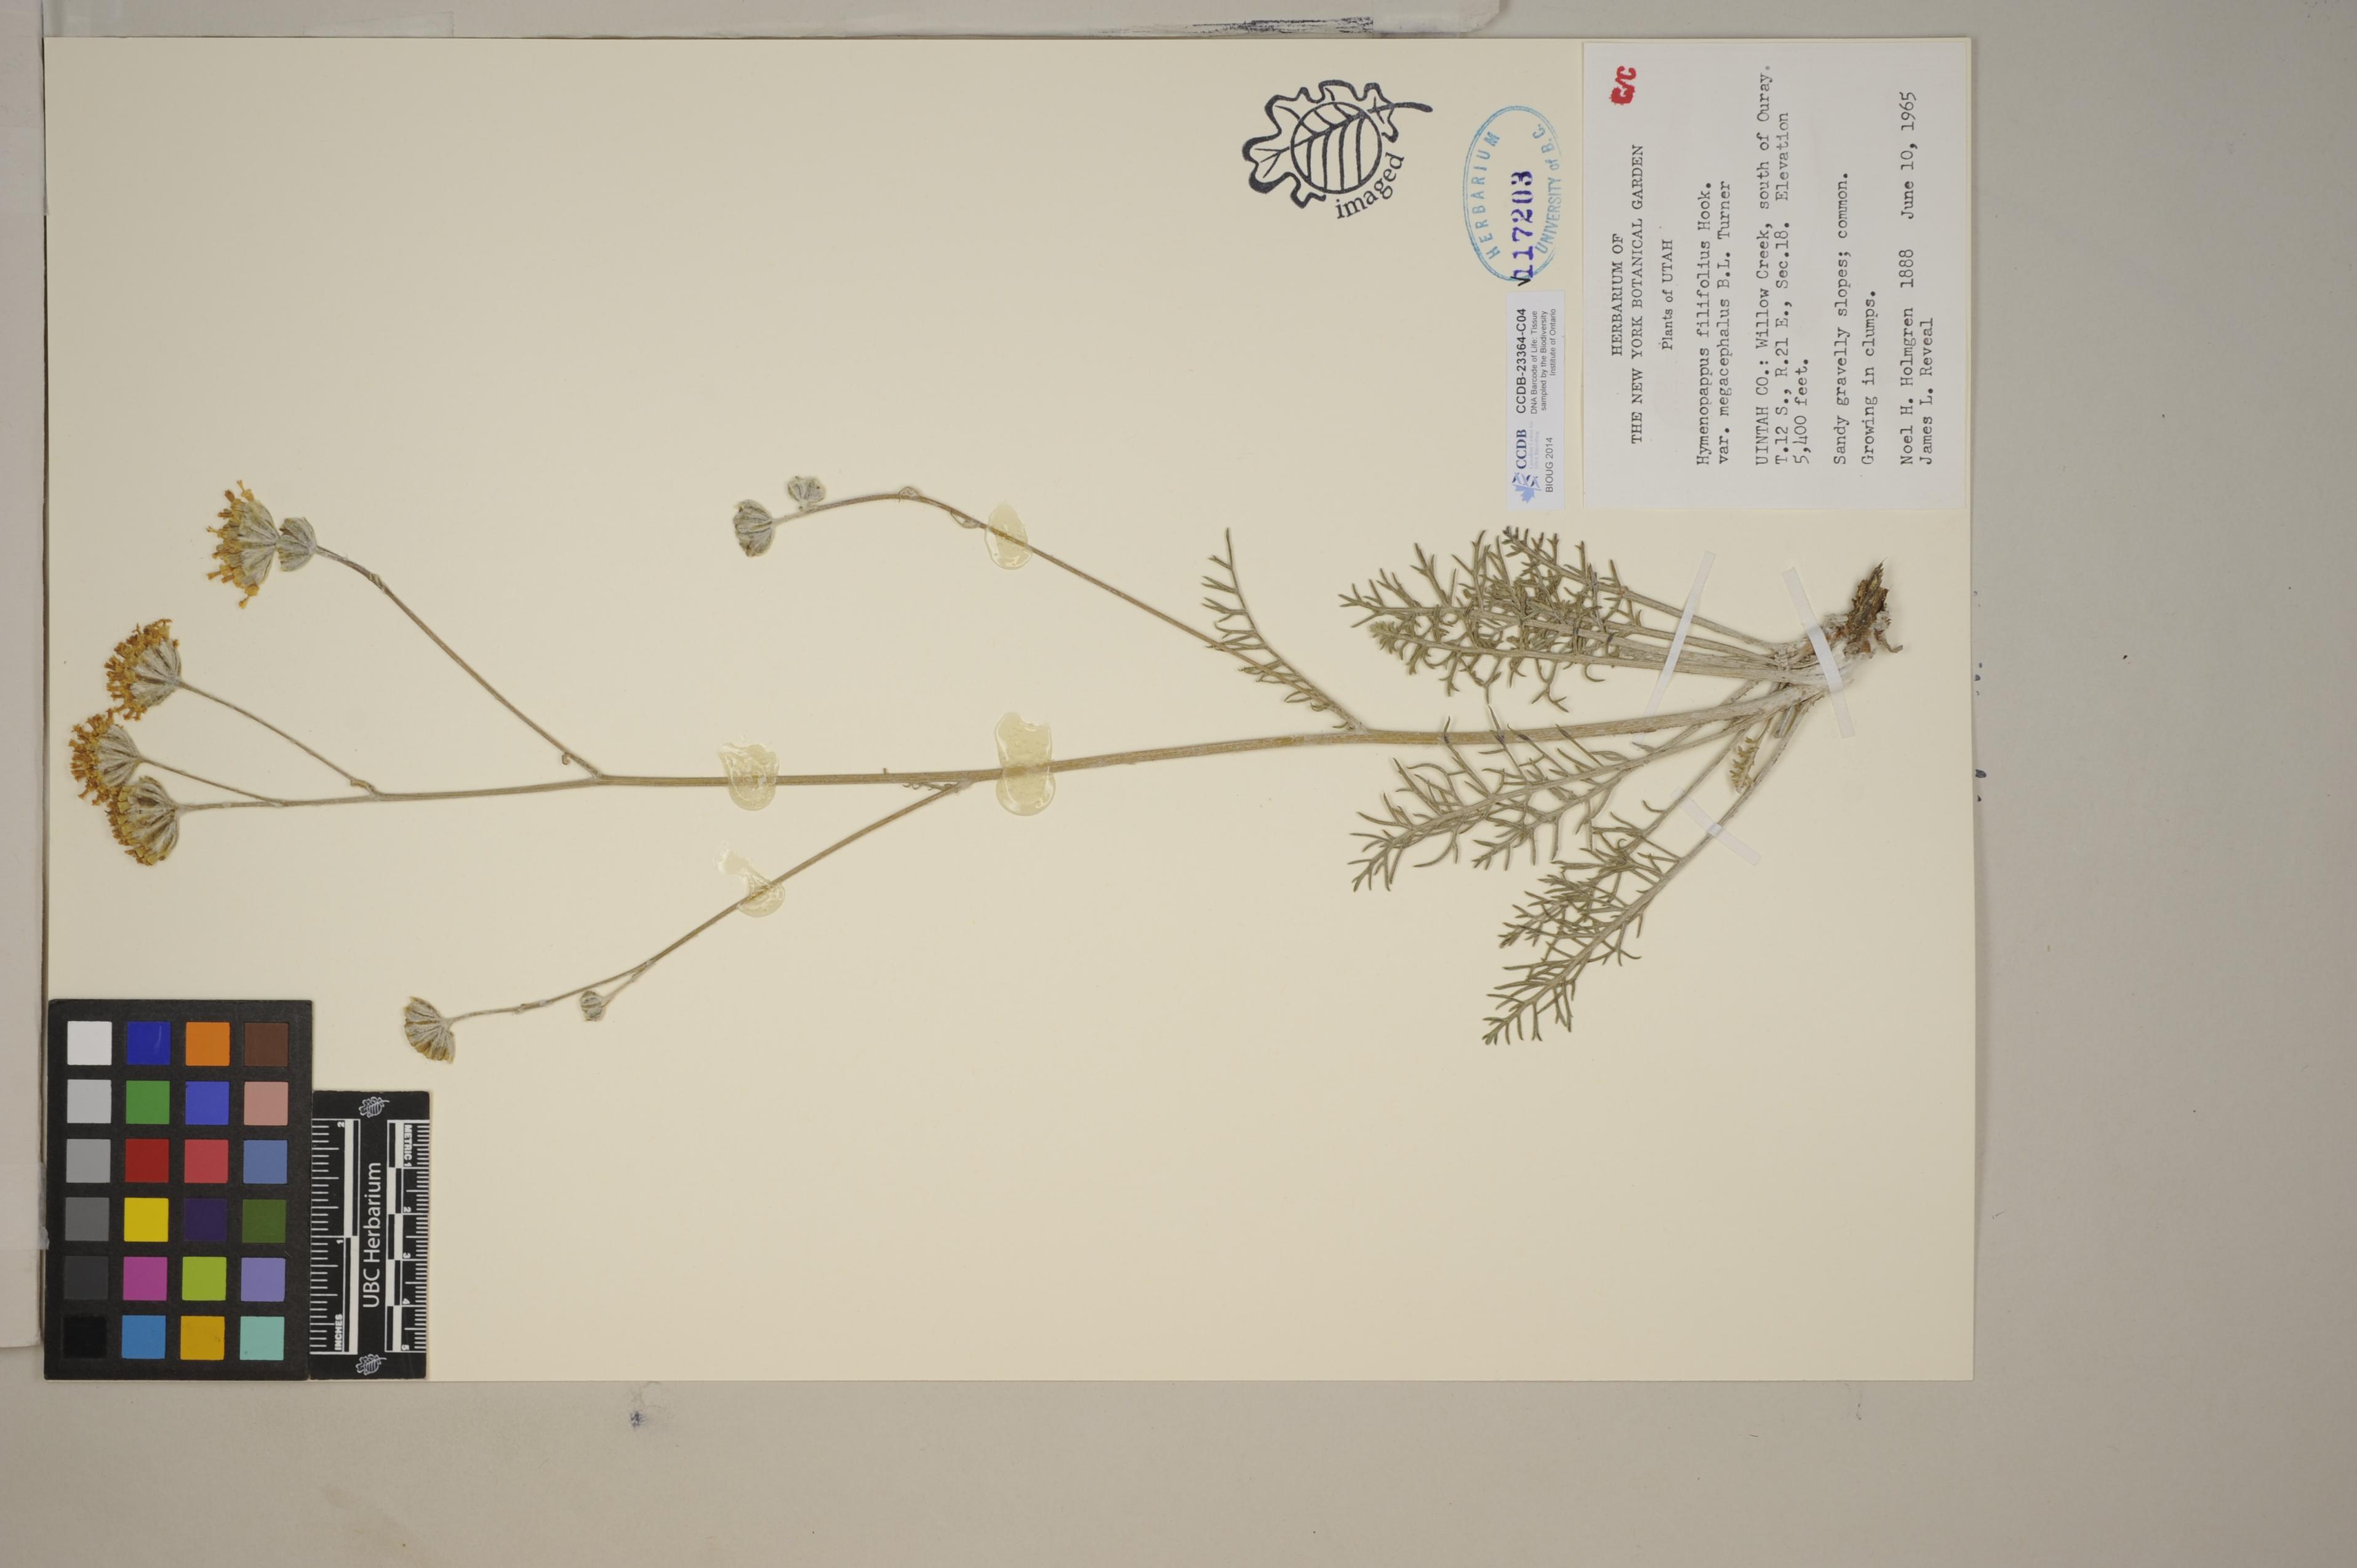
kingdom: Plantae
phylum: Tracheophyta
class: Magnoliopsida
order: Asterales
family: Asteraceae
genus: Hymenopappus
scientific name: Hymenopappus filifolius
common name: Columbia cutleaf
